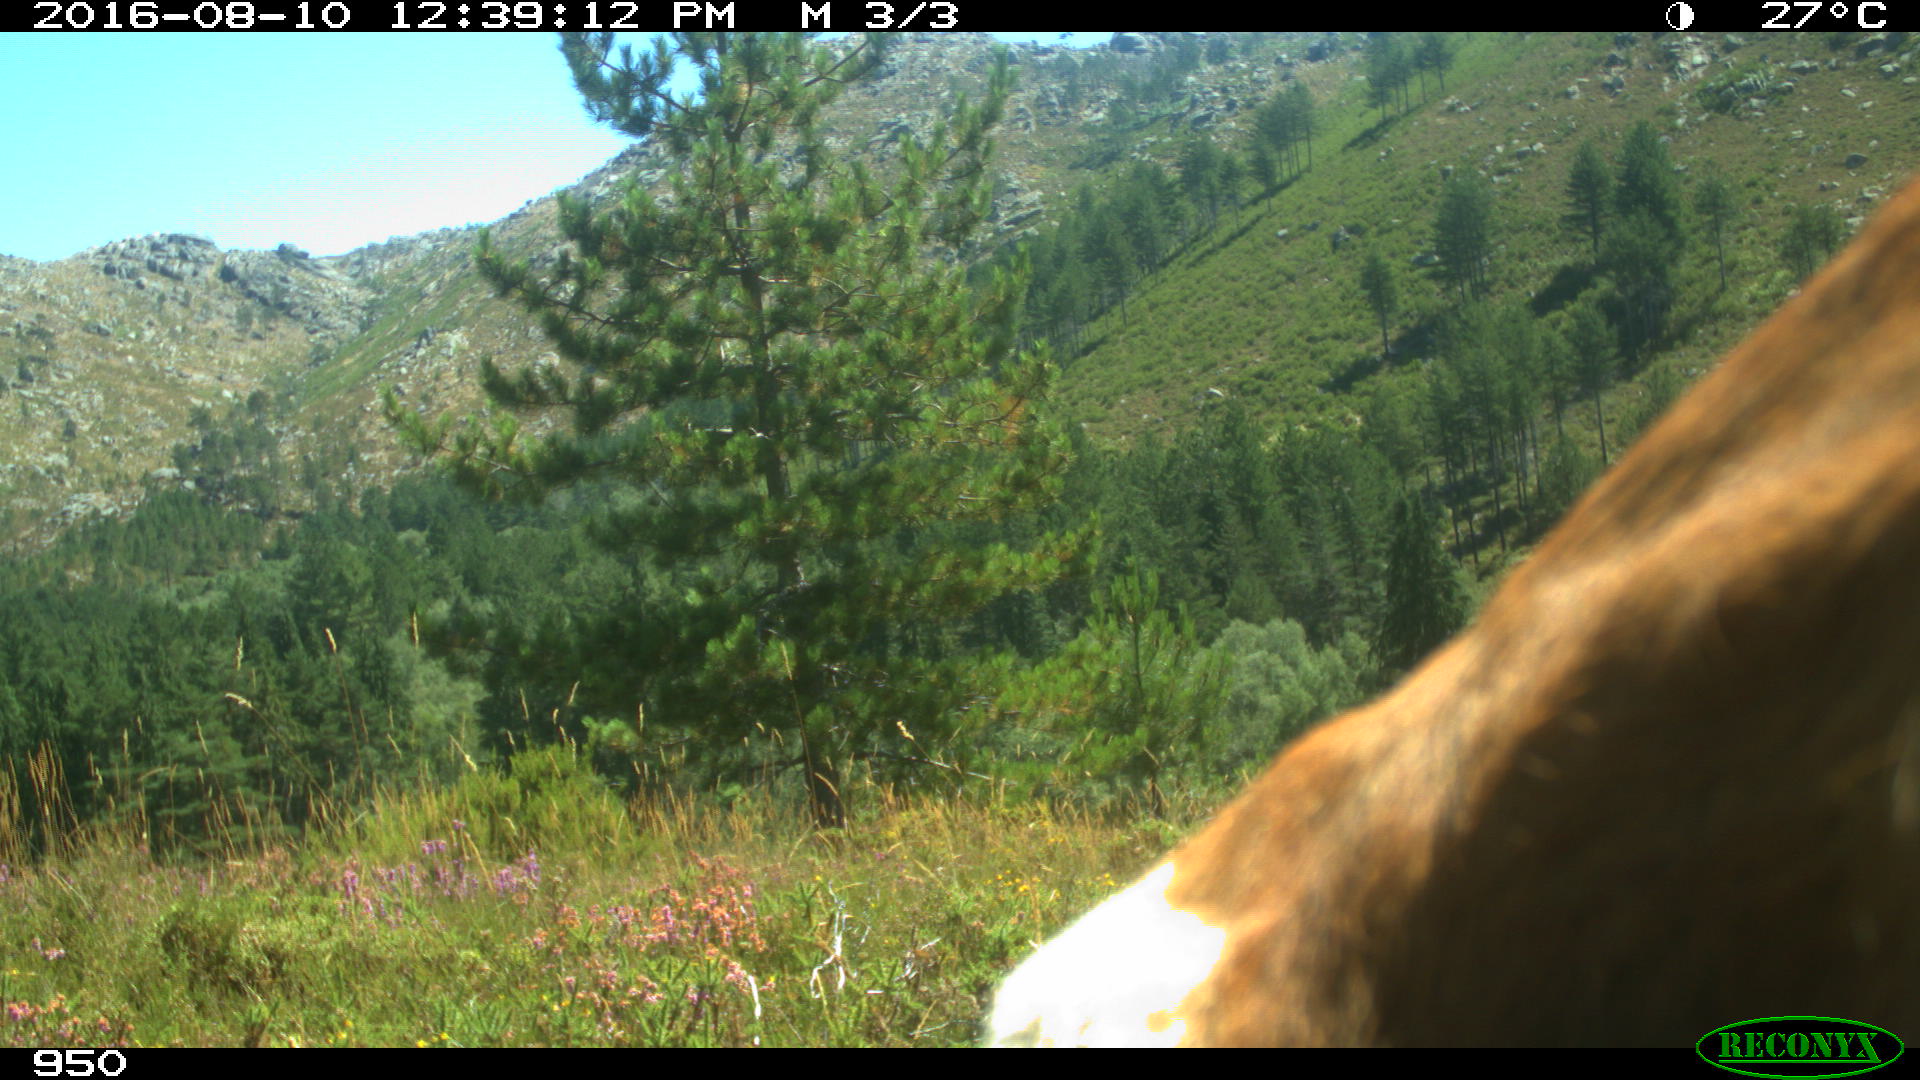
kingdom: Animalia
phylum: Chordata
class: Mammalia
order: Artiodactyla
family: Bovidae
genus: Bos
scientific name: Bos taurus
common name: Domesticated cattle
